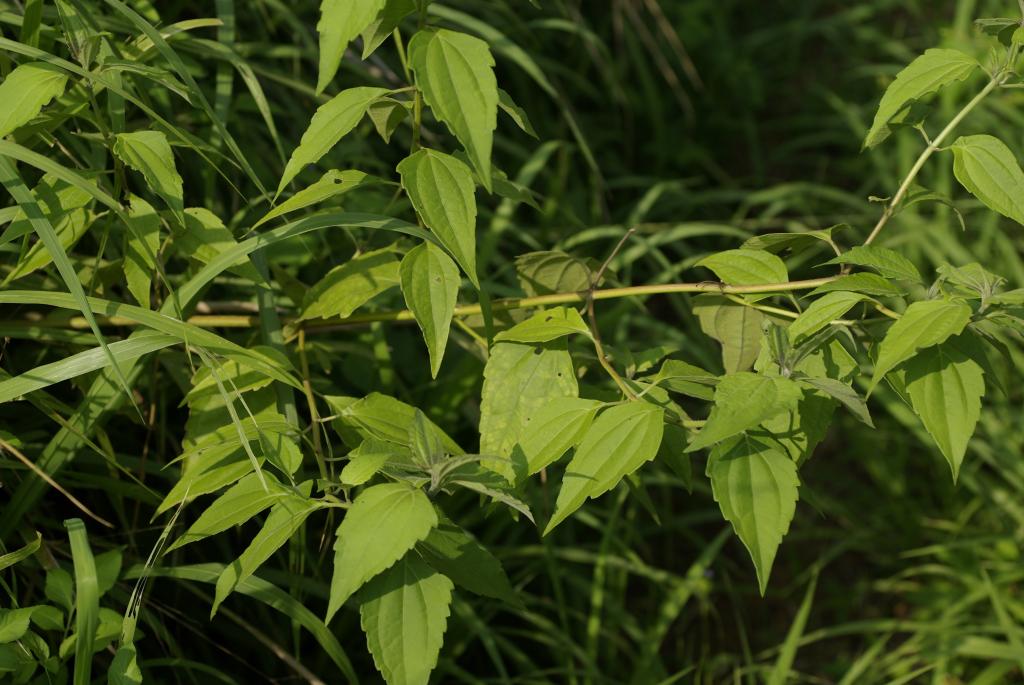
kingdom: Plantae
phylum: Tracheophyta
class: Magnoliopsida
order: Asterales
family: Asteraceae
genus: Chromolaena
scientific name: Chromolaena odorata
